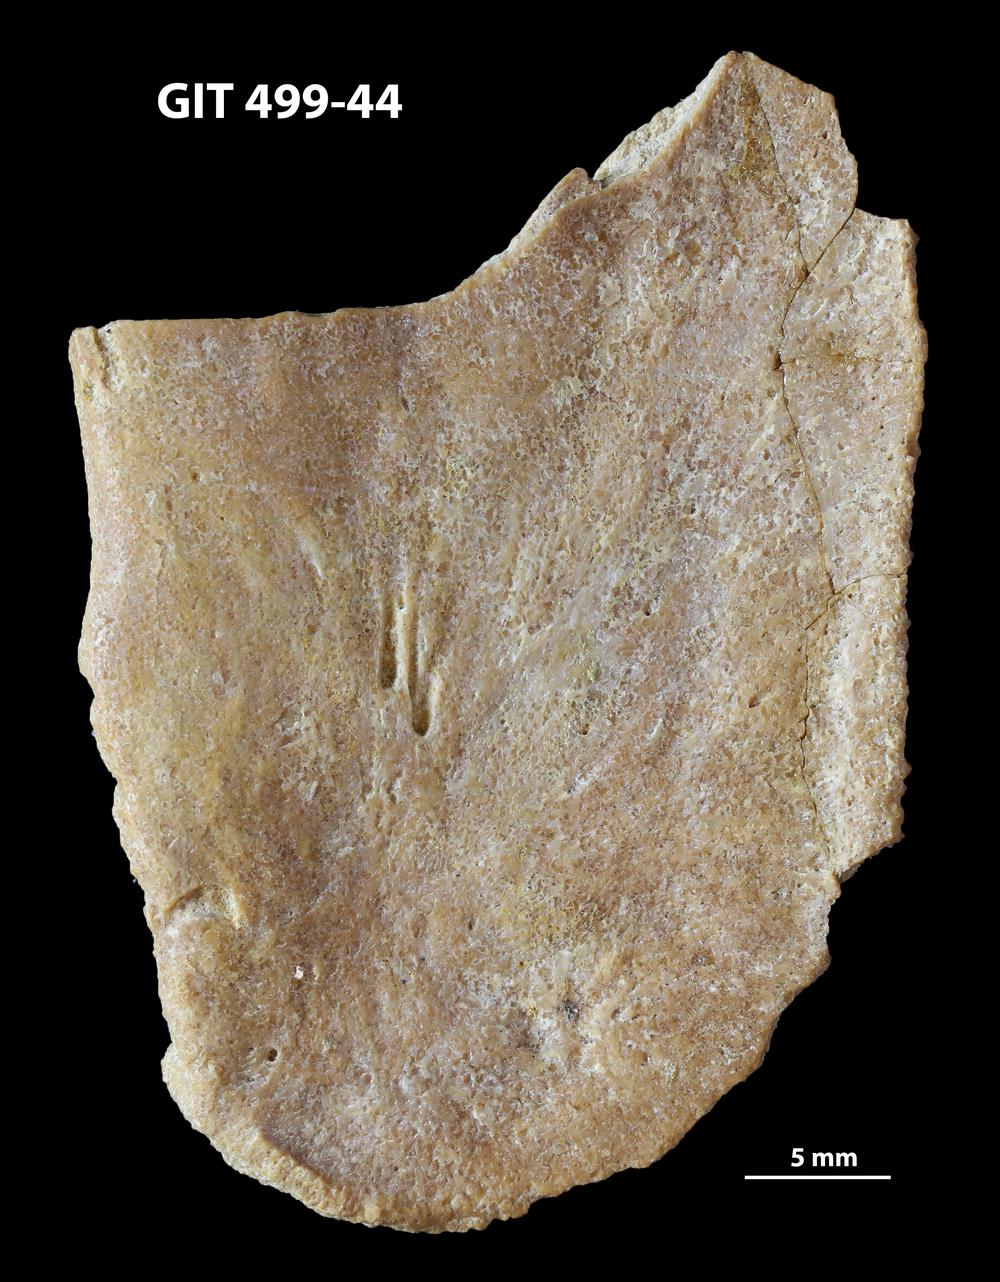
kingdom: Animalia
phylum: Chordata
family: Holoptychiidae
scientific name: Holoptychiidae
